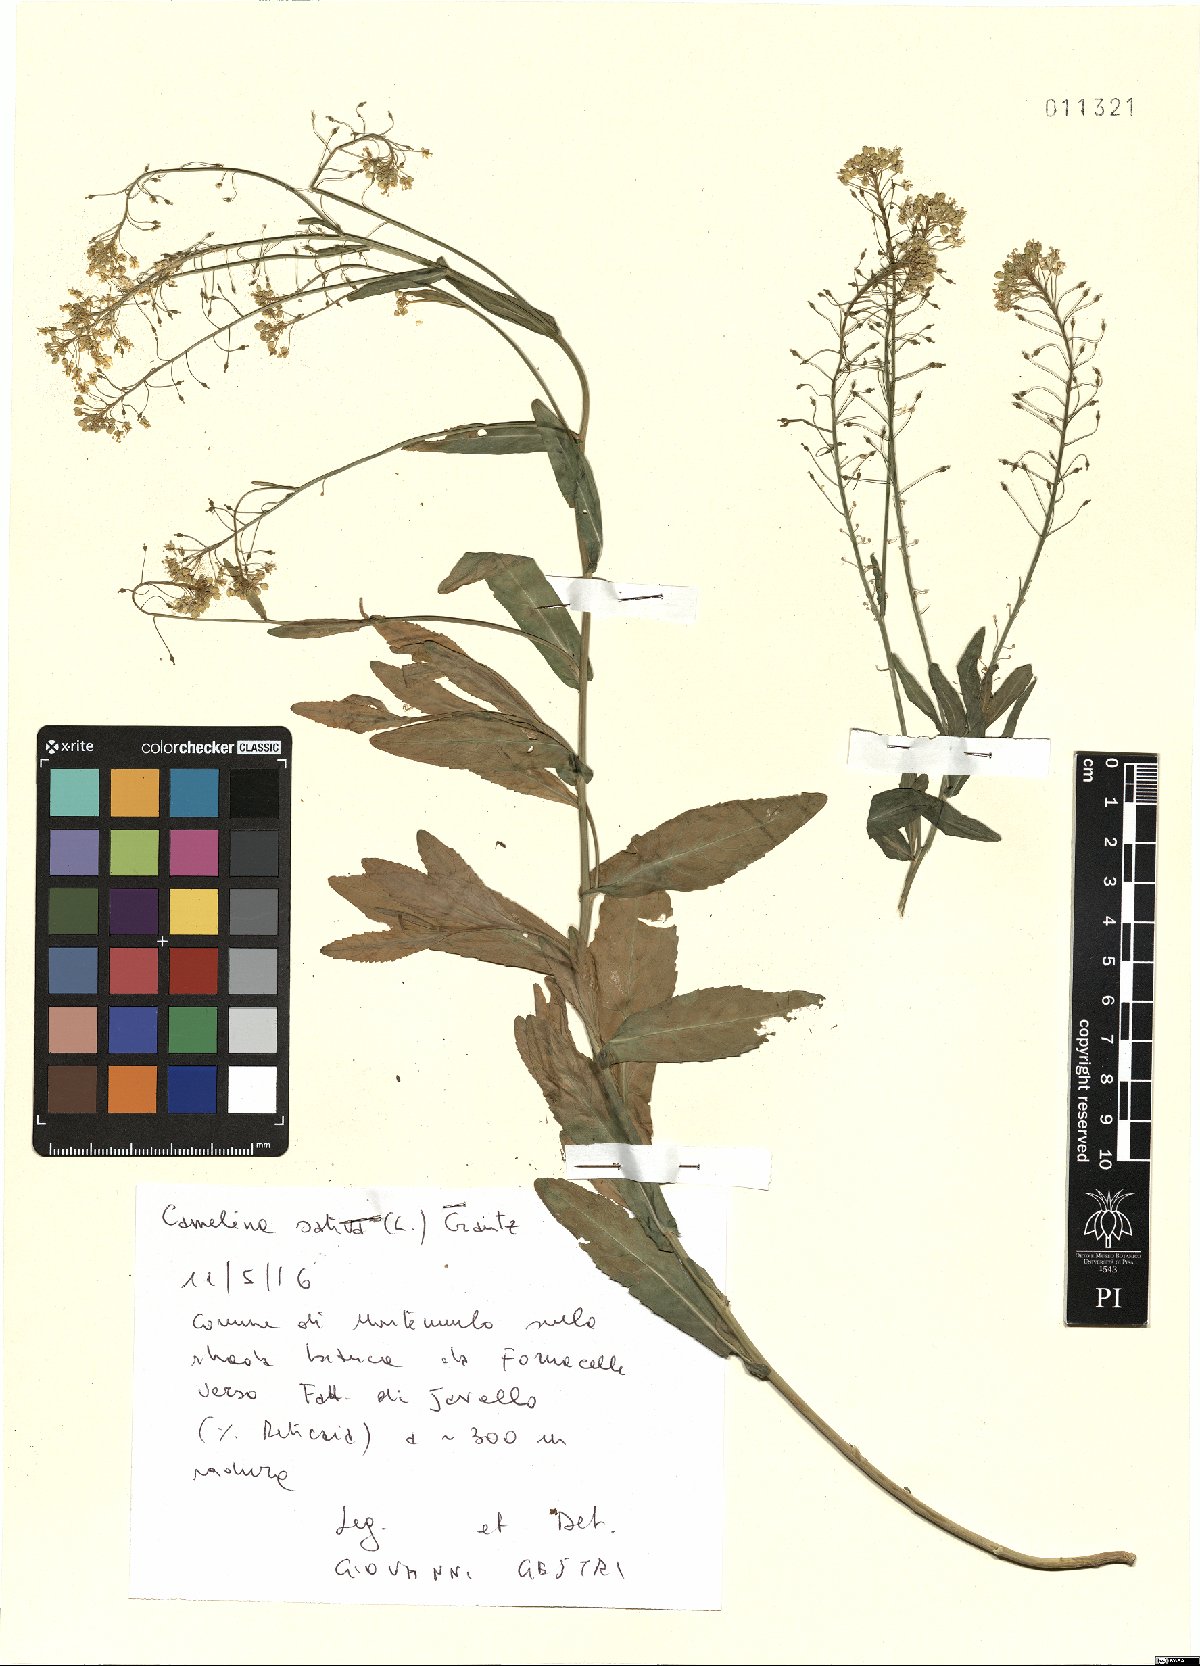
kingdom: Plantae
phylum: Tracheophyta
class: Magnoliopsida
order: Brassicales
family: Brassicaceae
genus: Camelina
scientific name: Camelina sativa
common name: Gold-of-pleasure
